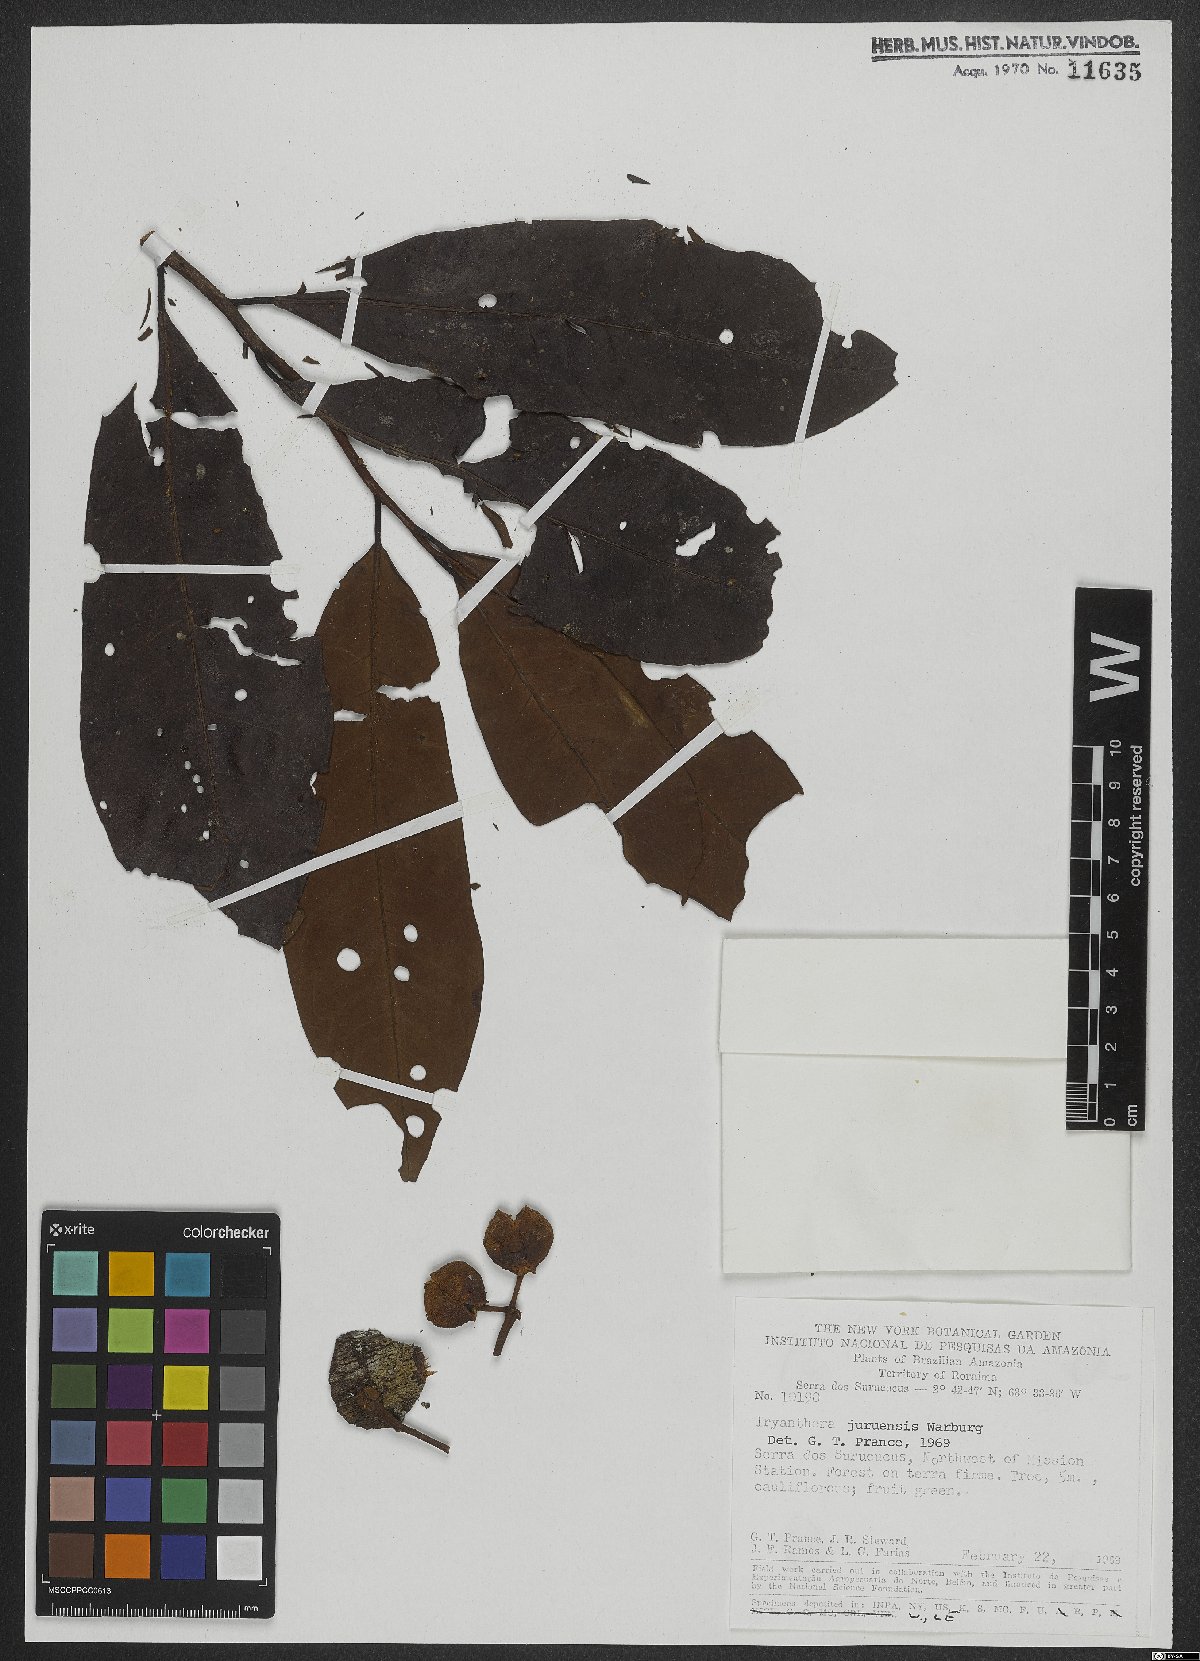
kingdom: Plantae
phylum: Tracheophyta
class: Magnoliopsida
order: Magnoliales
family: Myristicaceae
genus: Iryanthera
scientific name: Iryanthera juruensis
